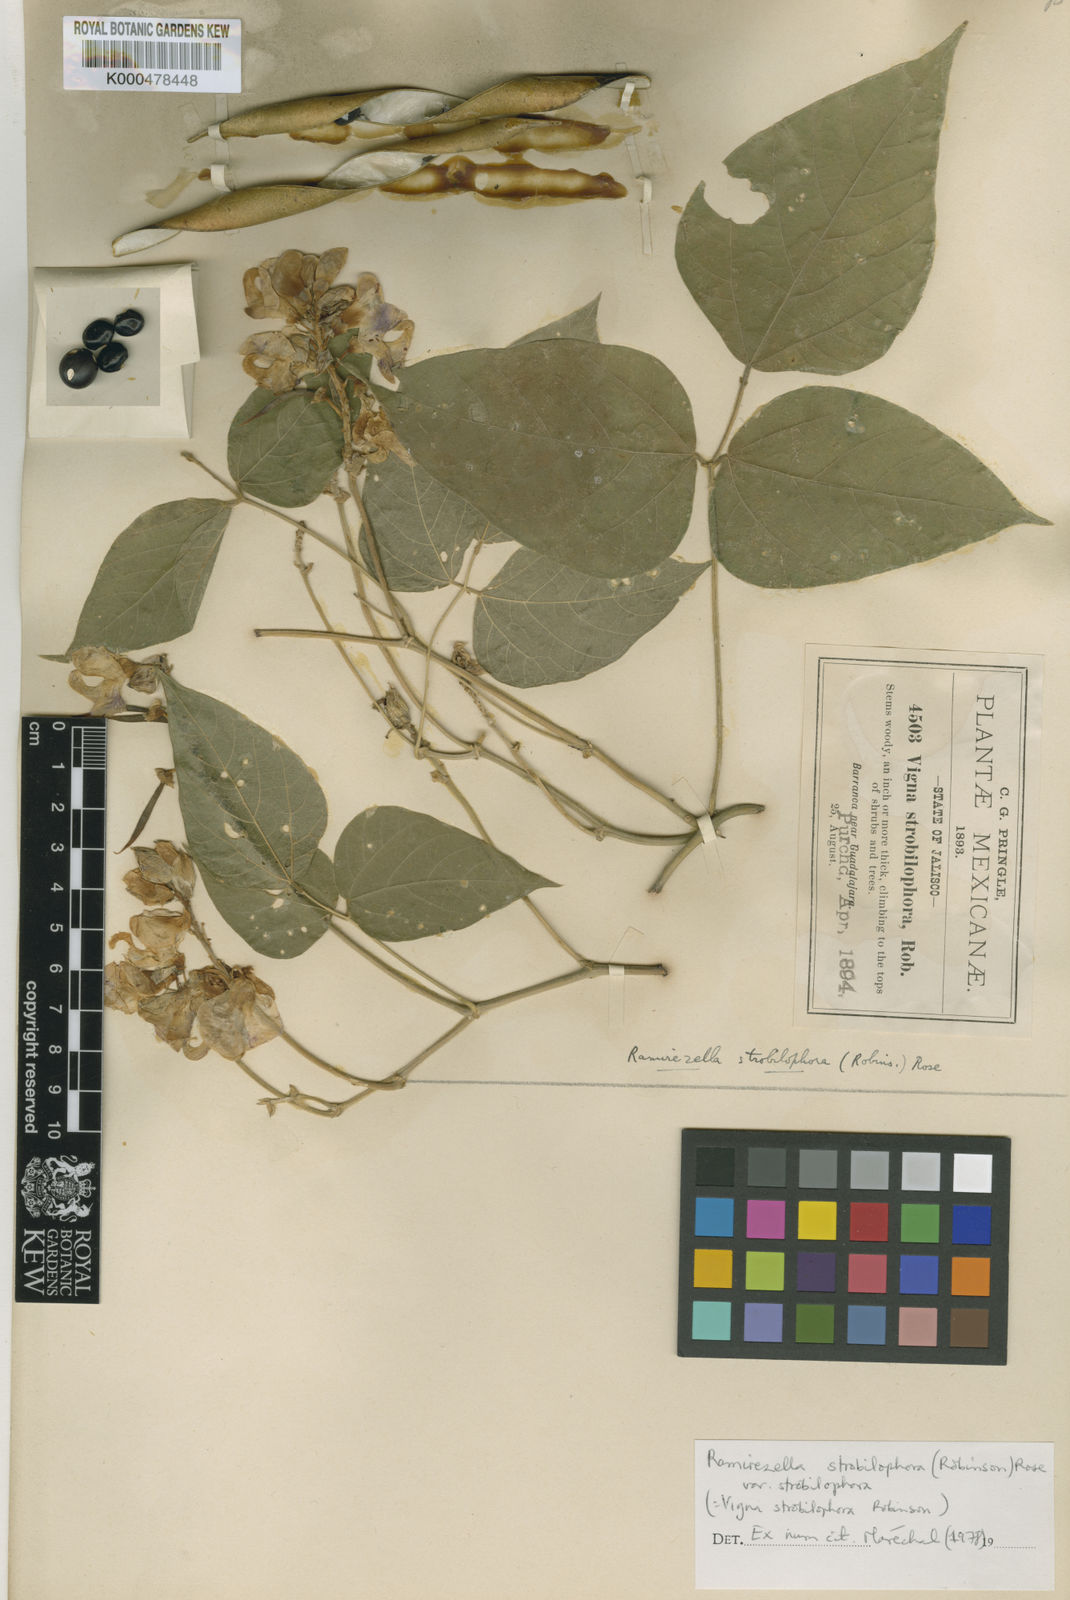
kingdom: Plantae
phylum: Tracheophyta
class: Magnoliopsida
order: Fabales
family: Fabaceae
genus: Ramirezella
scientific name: Ramirezella strobilophora
